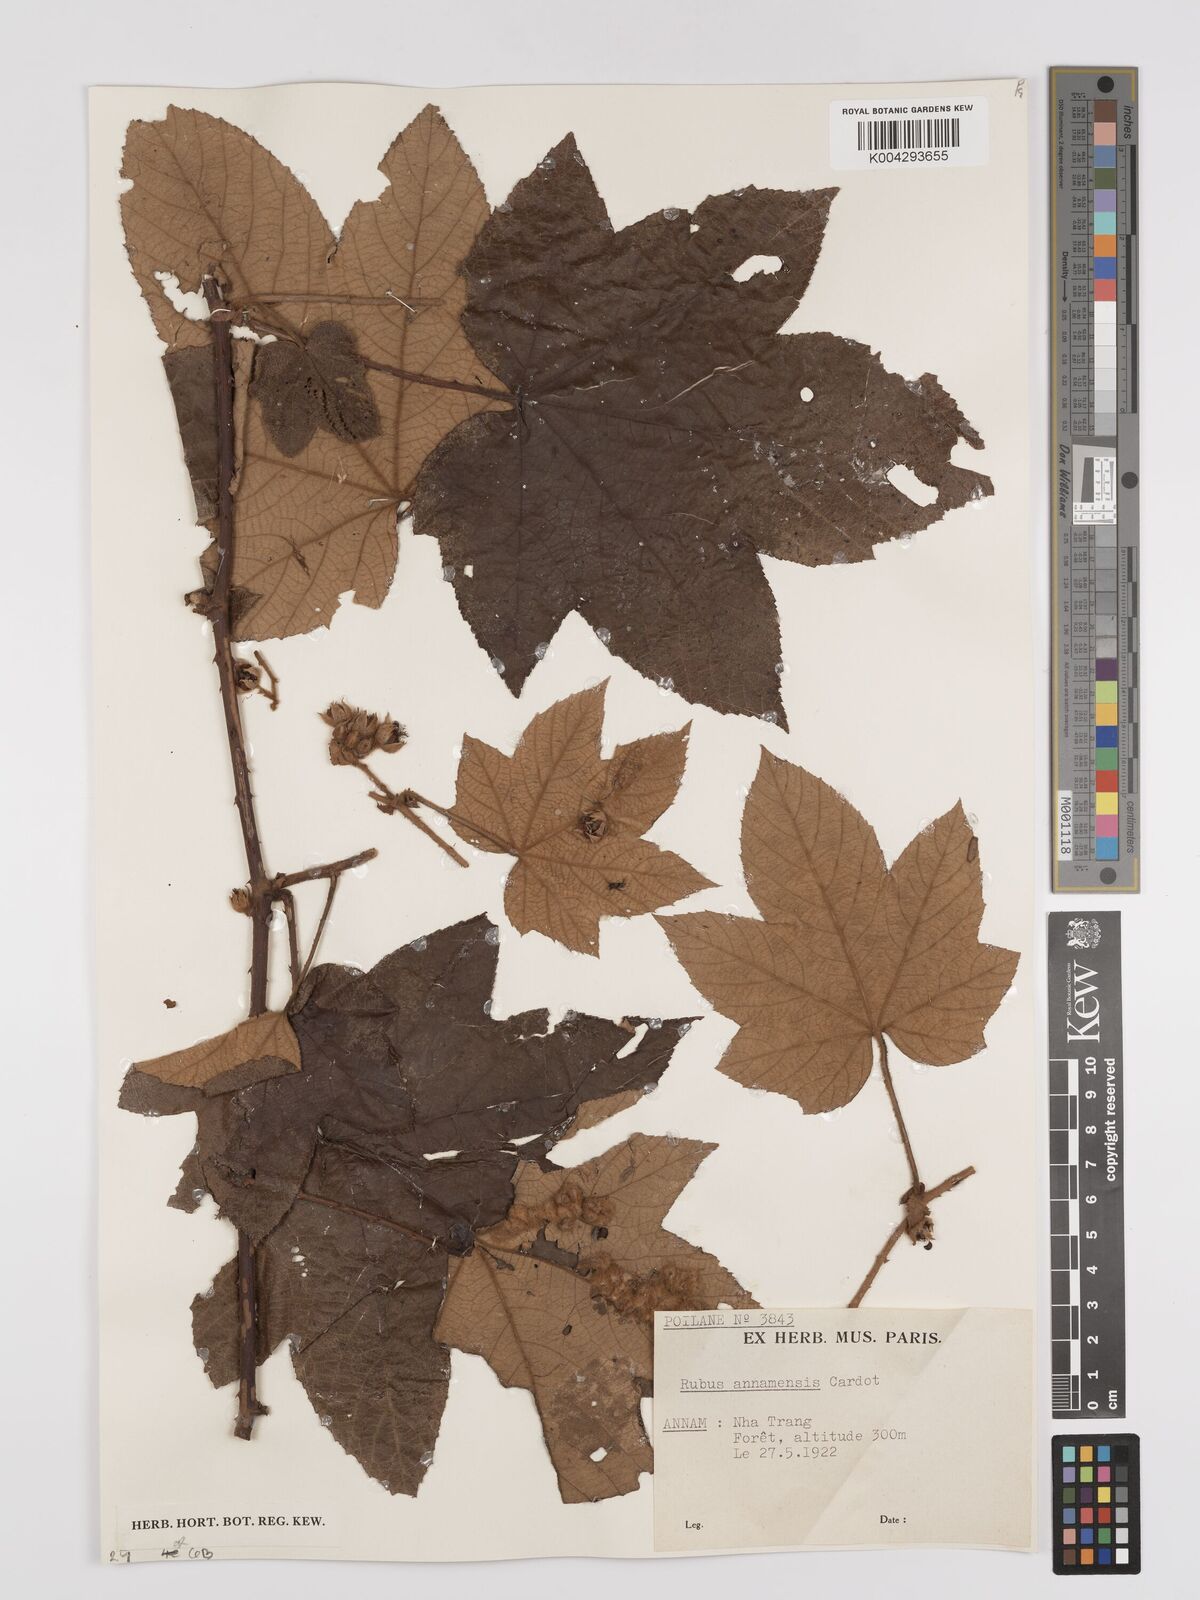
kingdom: Plantae
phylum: Tracheophyta
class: Magnoliopsida
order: Rosales
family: Rosaceae
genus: Rubus
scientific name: Rubus assamensis
